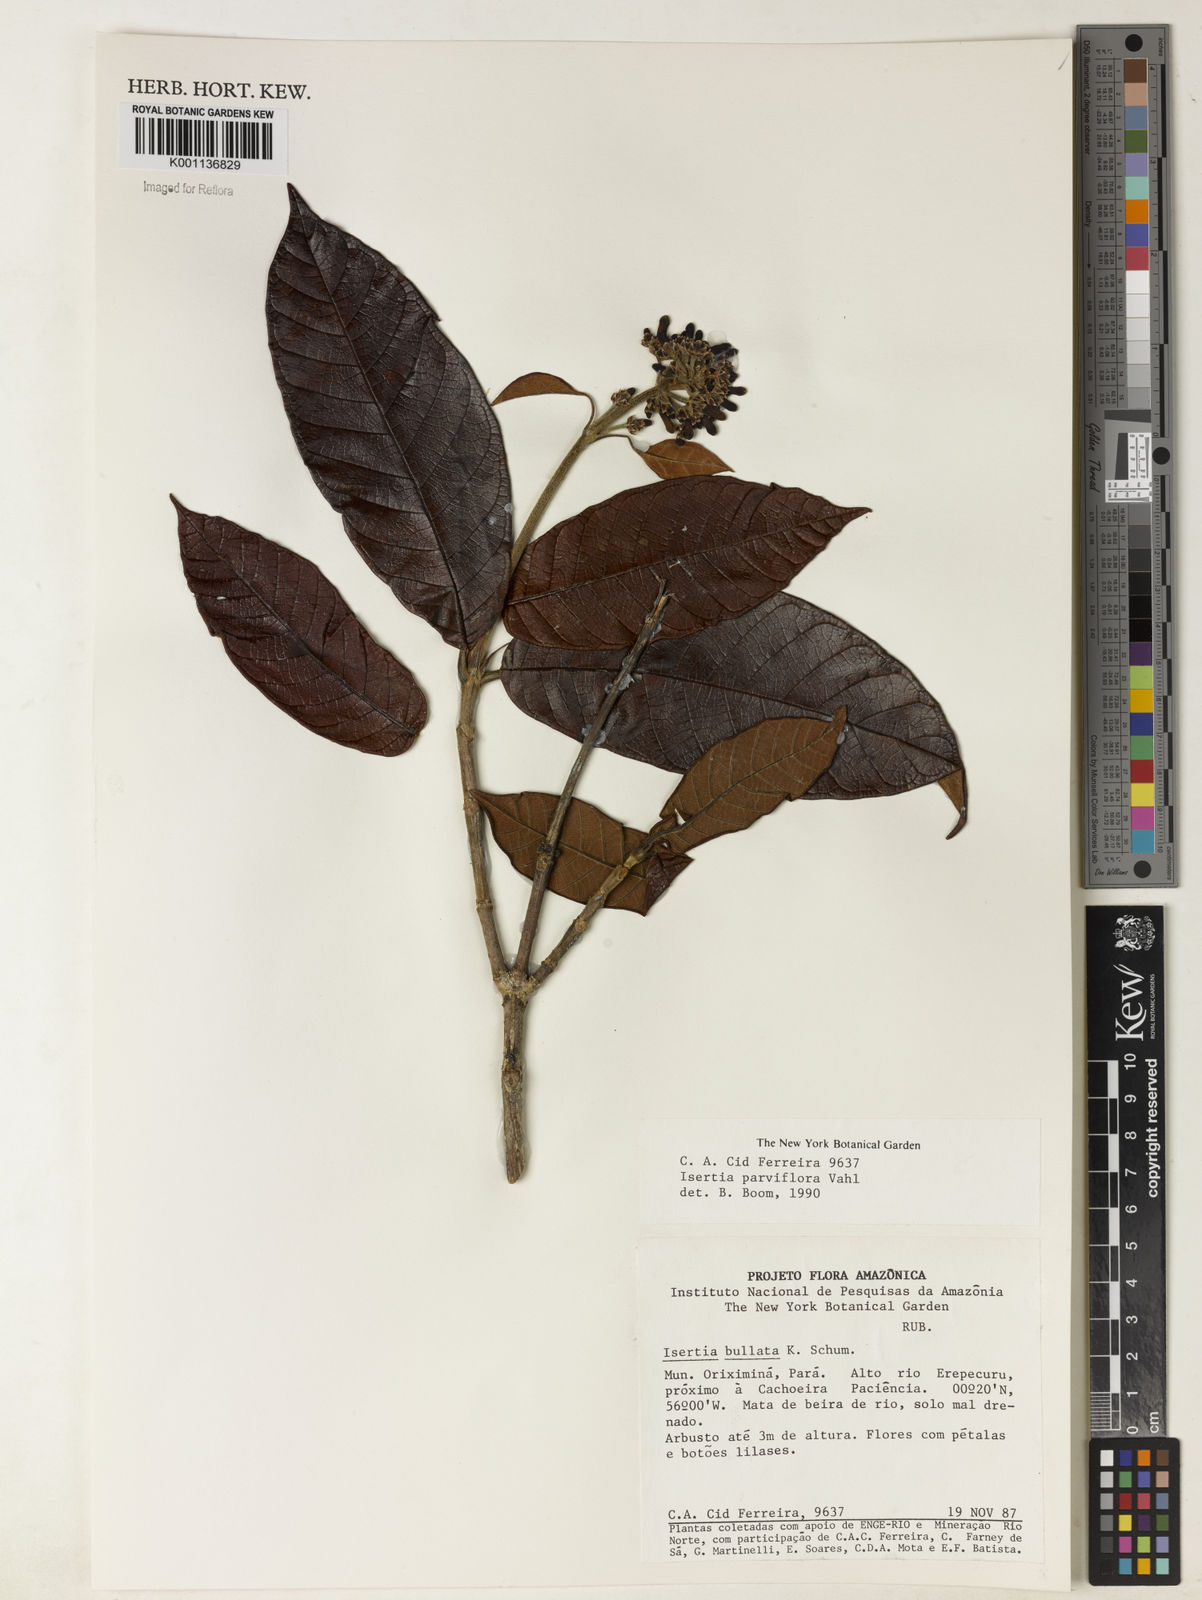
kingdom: Plantae
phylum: Tracheophyta
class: Magnoliopsida
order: Gentianales
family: Rubiaceae
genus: Isertia
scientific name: Isertia parviflora
